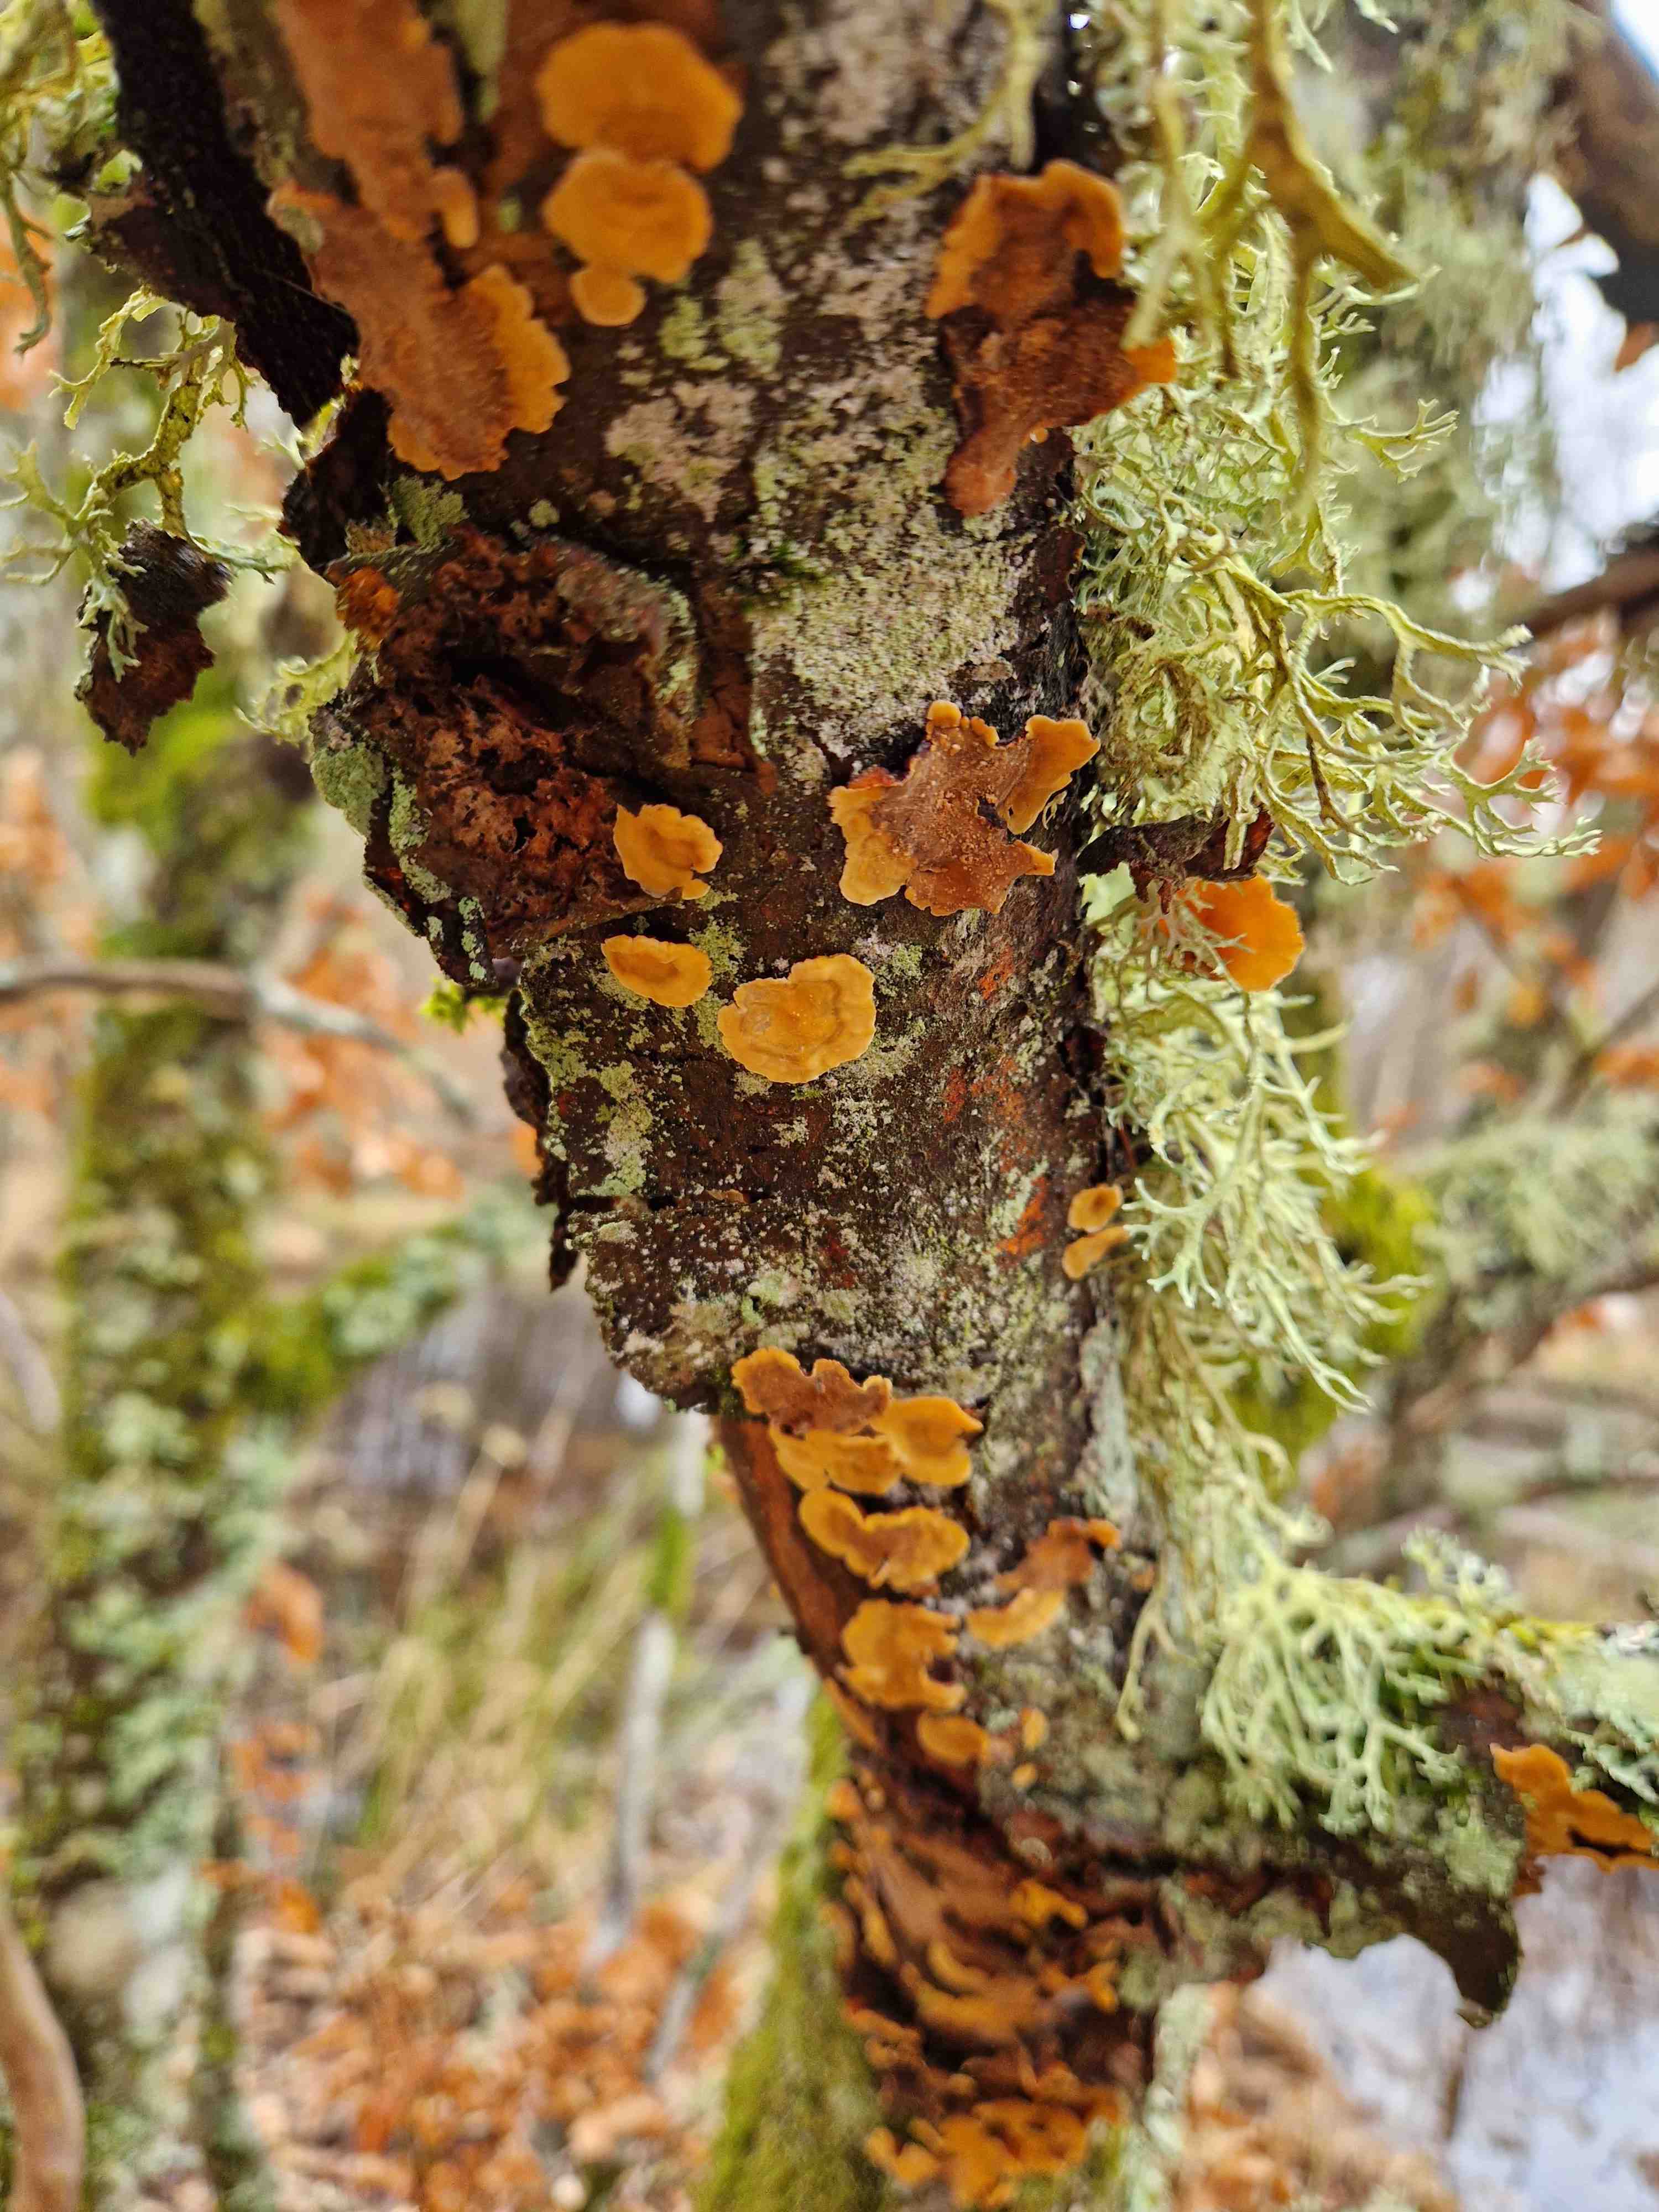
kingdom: Fungi
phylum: Basidiomycota
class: Agaricomycetes
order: Russulales
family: Stereaceae
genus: Stereum
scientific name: Stereum hirsutum
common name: håret lædersvamp
